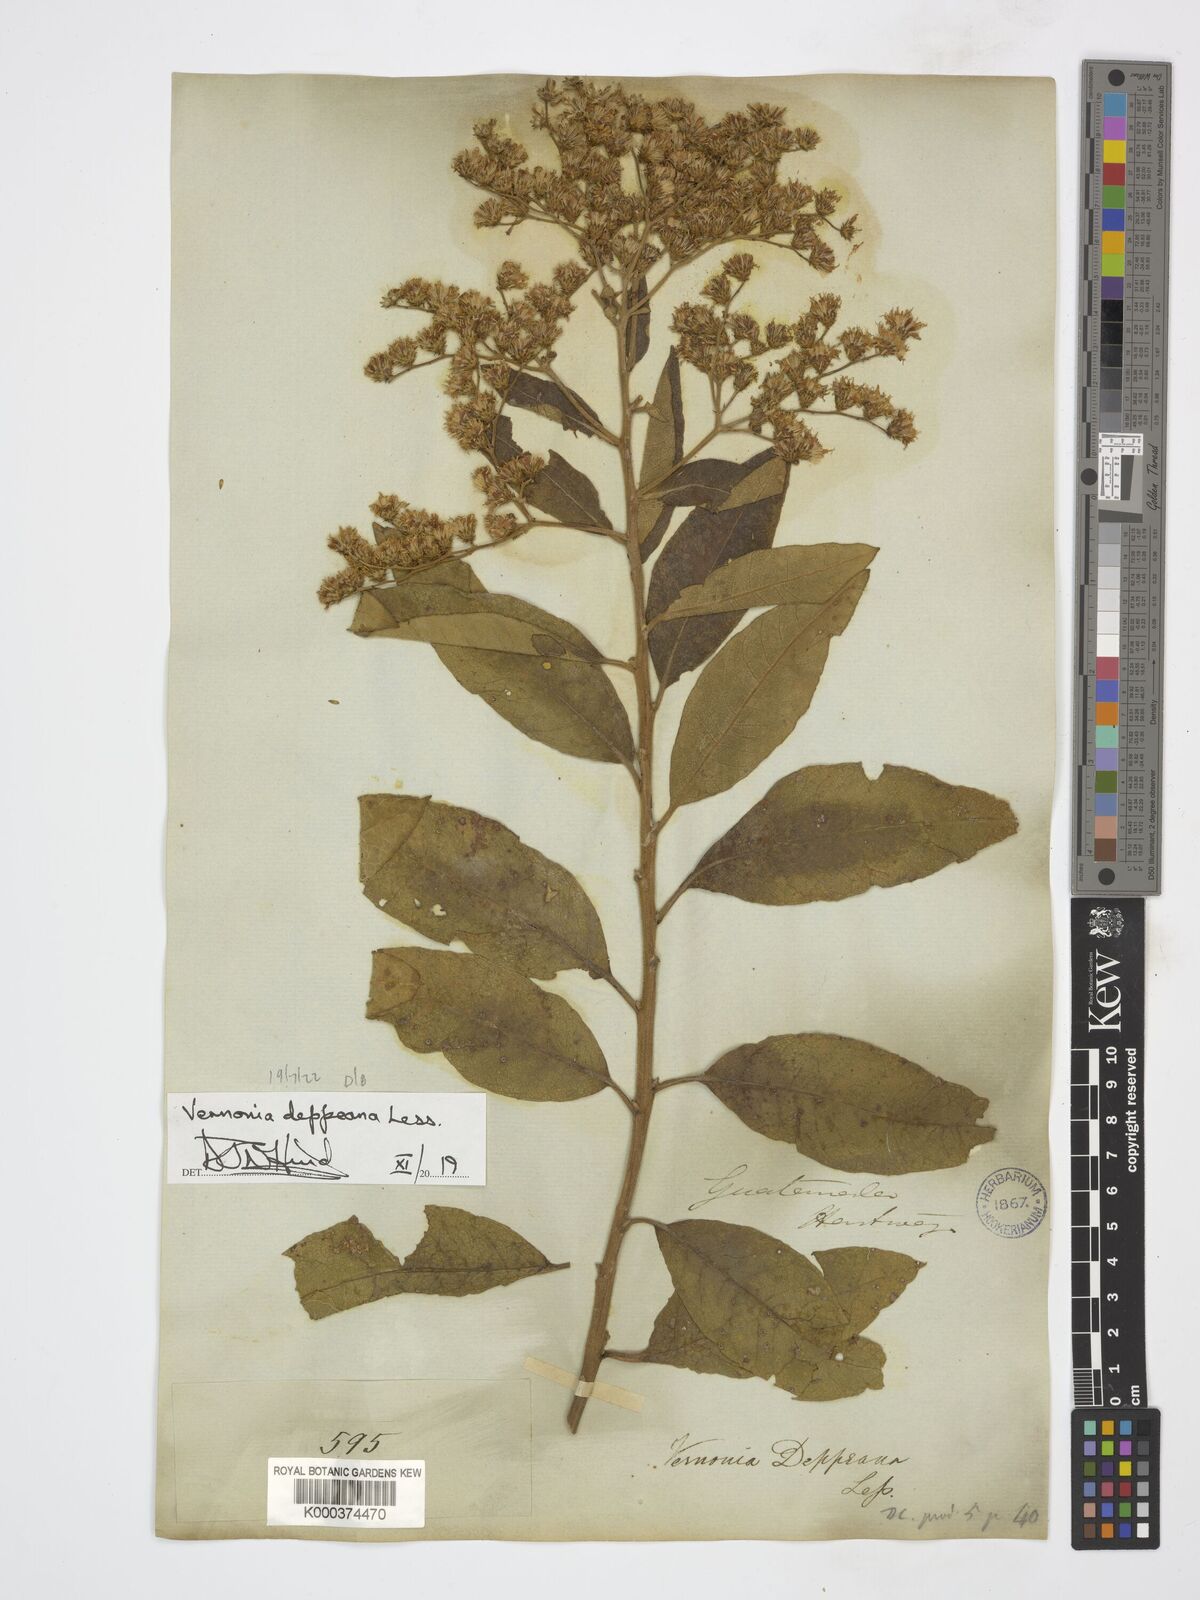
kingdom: Plantae
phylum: Tracheophyta
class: Magnoliopsida
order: Asterales
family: Asteraceae
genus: Vernonanthura
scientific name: Vernonanthura stellaris
